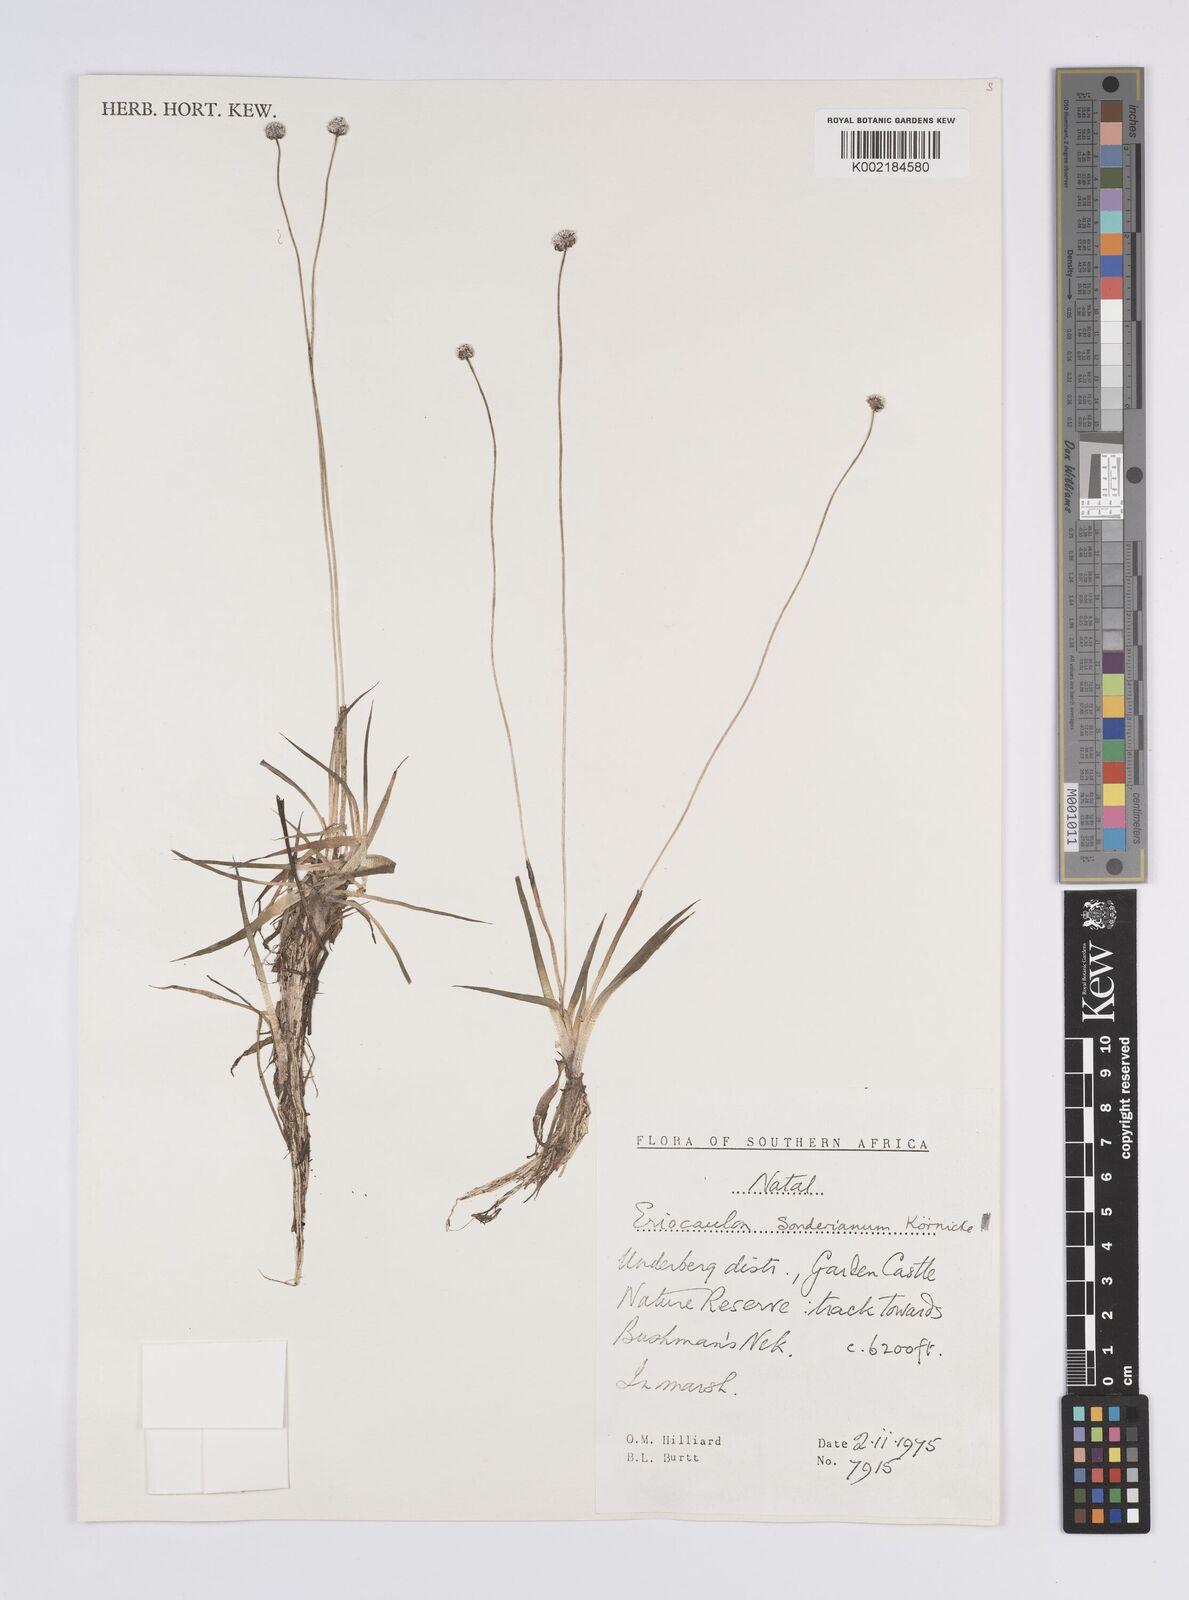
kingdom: Plantae
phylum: Tracheophyta
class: Liliopsida
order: Poales
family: Eriocaulaceae
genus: Eriocaulon
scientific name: Eriocaulon sonderianum
